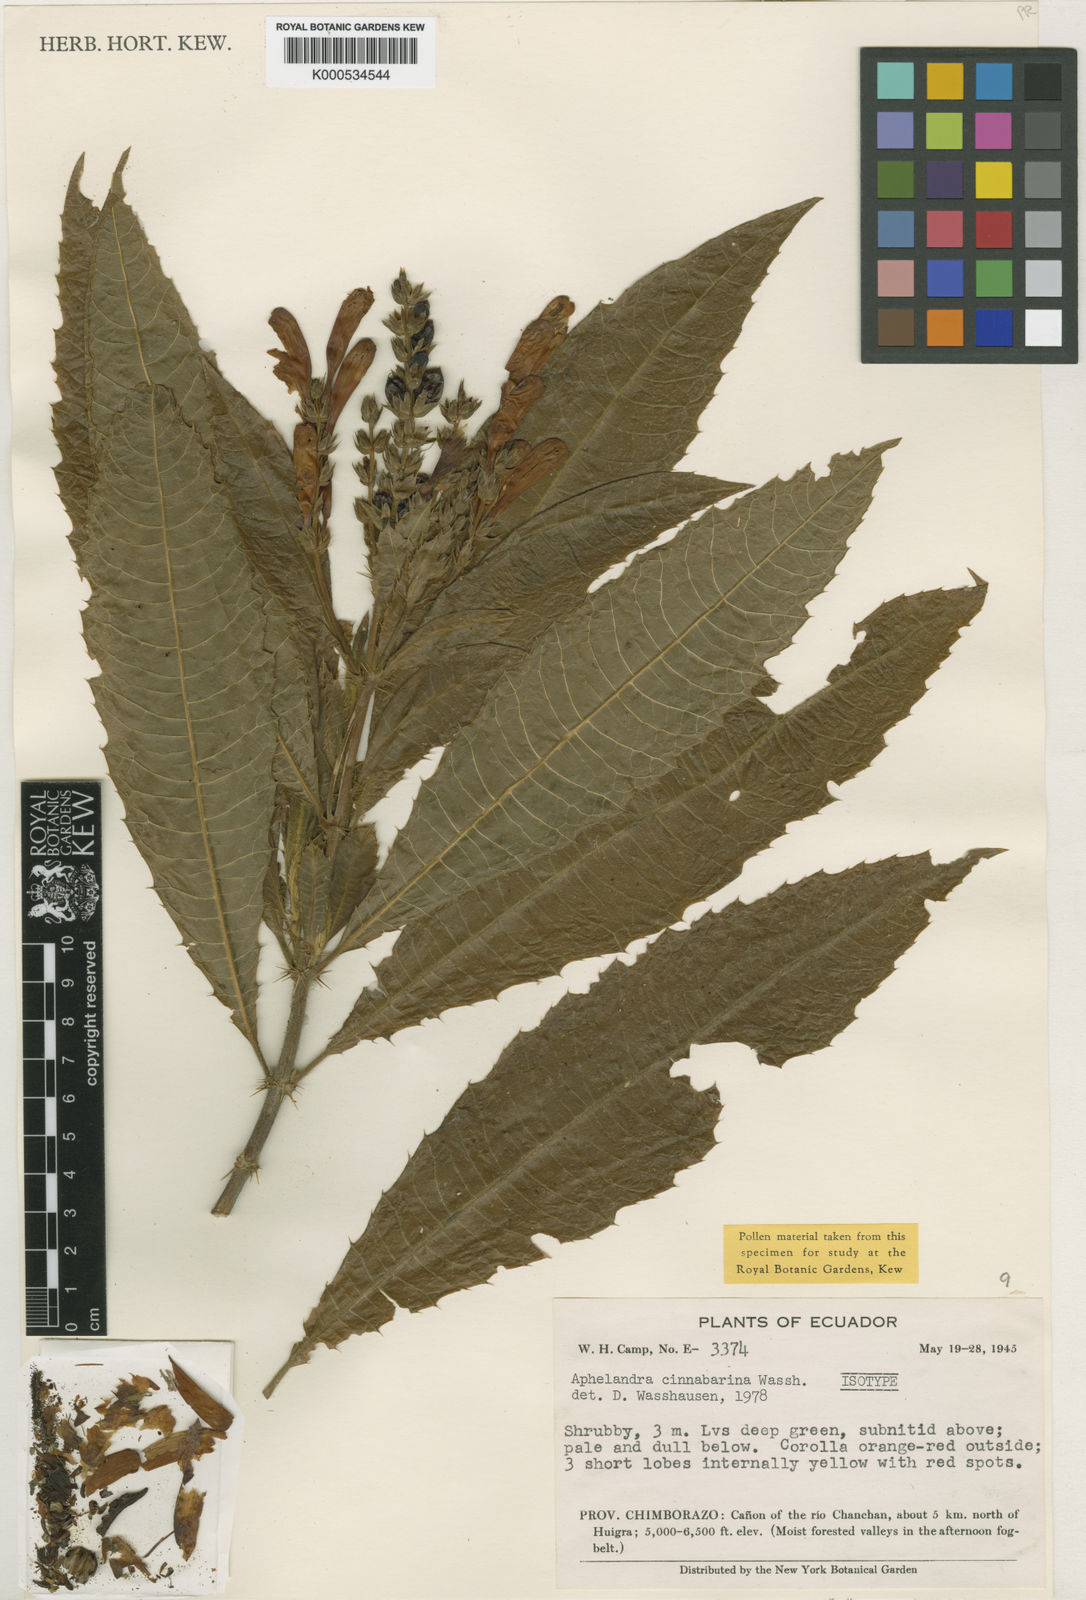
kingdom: Plantae
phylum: Tracheophyta
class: Magnoliopsida
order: Lamiales
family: Acanthaceae
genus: Aphelandra
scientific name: Aphelandra cinnabarina
